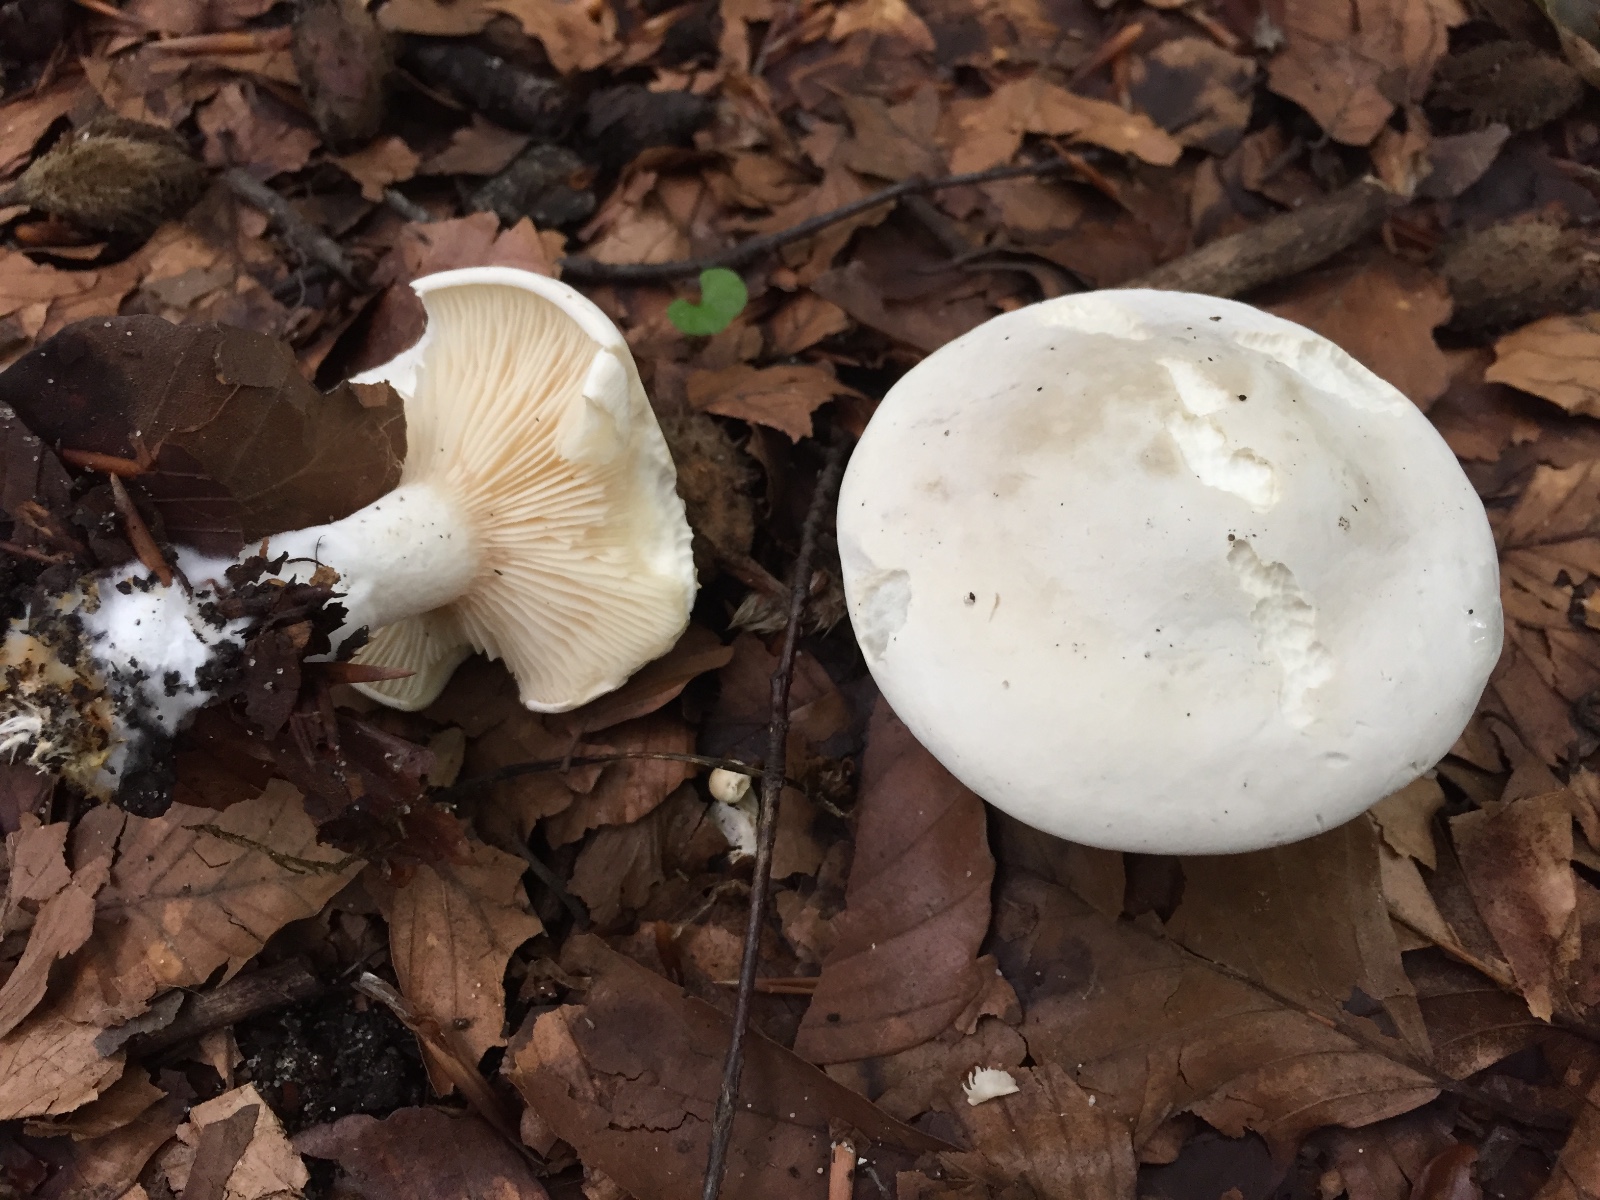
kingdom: Fungi
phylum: Basidiomycota
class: Agaricomycetes
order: Agaricales
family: Entolomataceae
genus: Clitopilus
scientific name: Clitopilus prunulus
